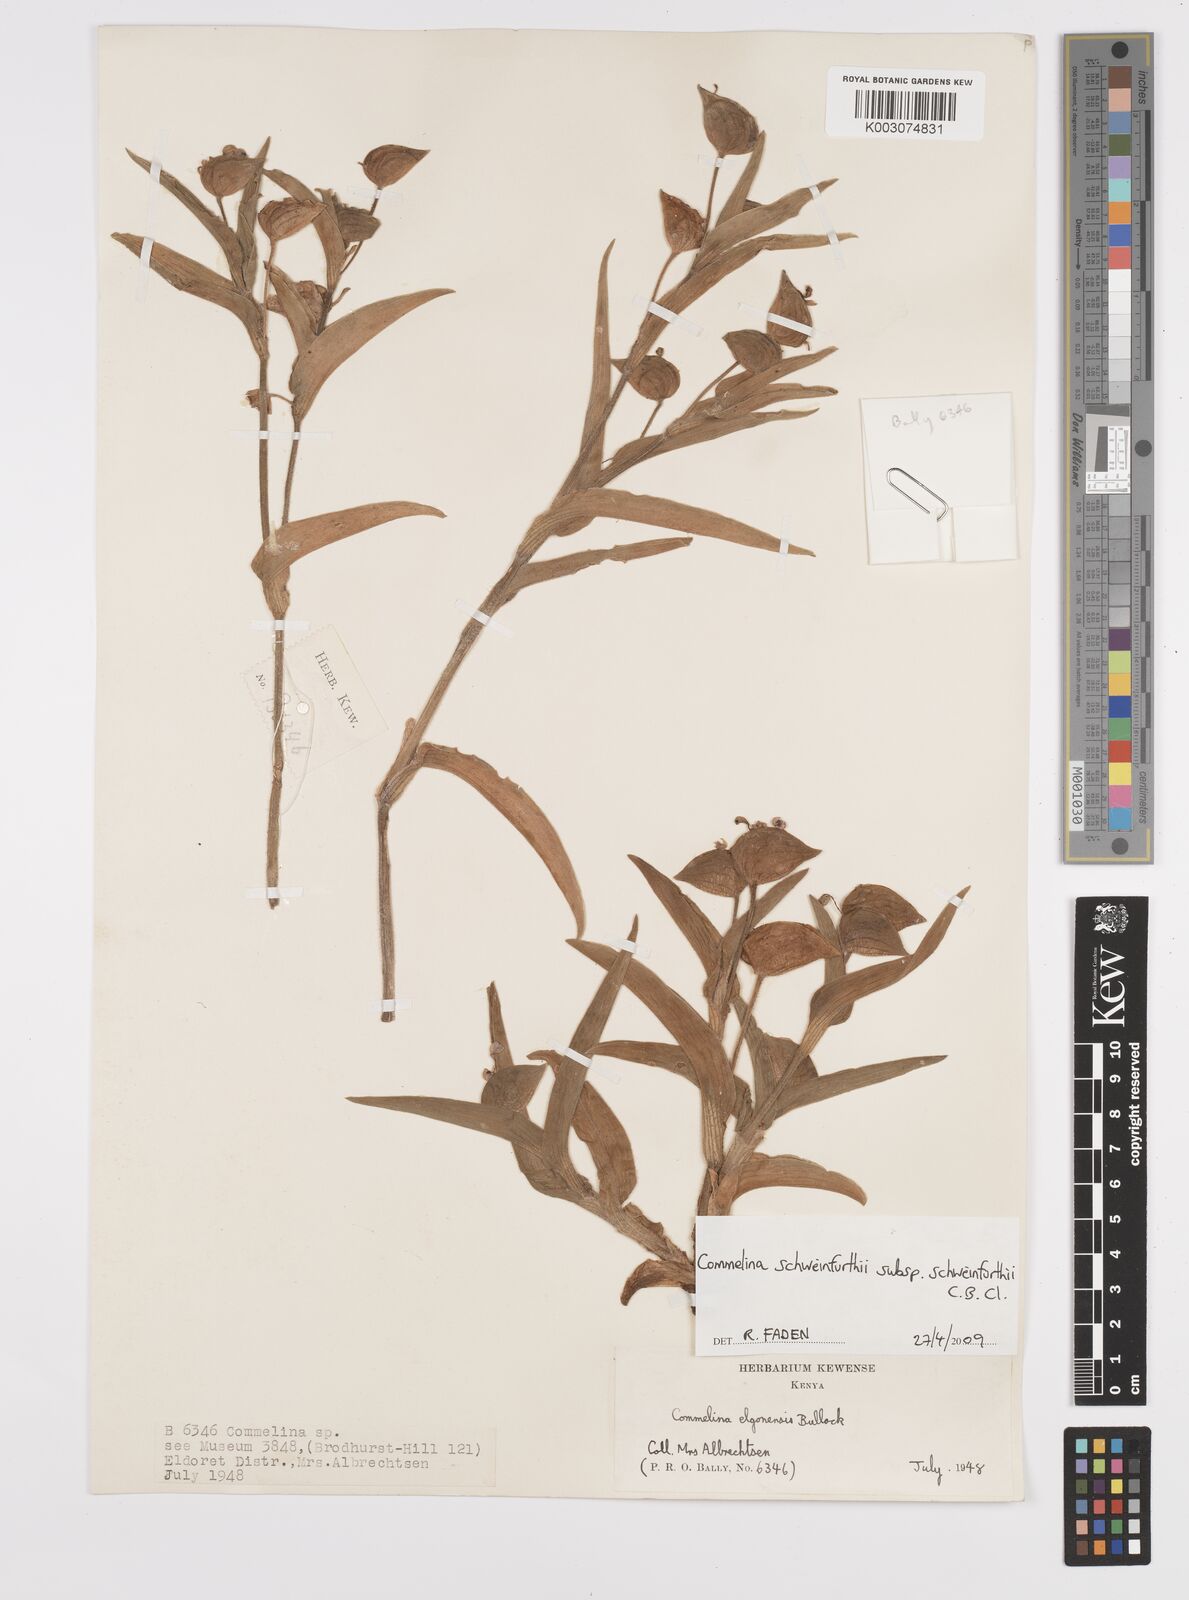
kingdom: Plantae
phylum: Tracheophyta
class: Liliopsida
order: Commelinales
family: Commelinaceae
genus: Commelina
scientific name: Commelina schweinfurthii
